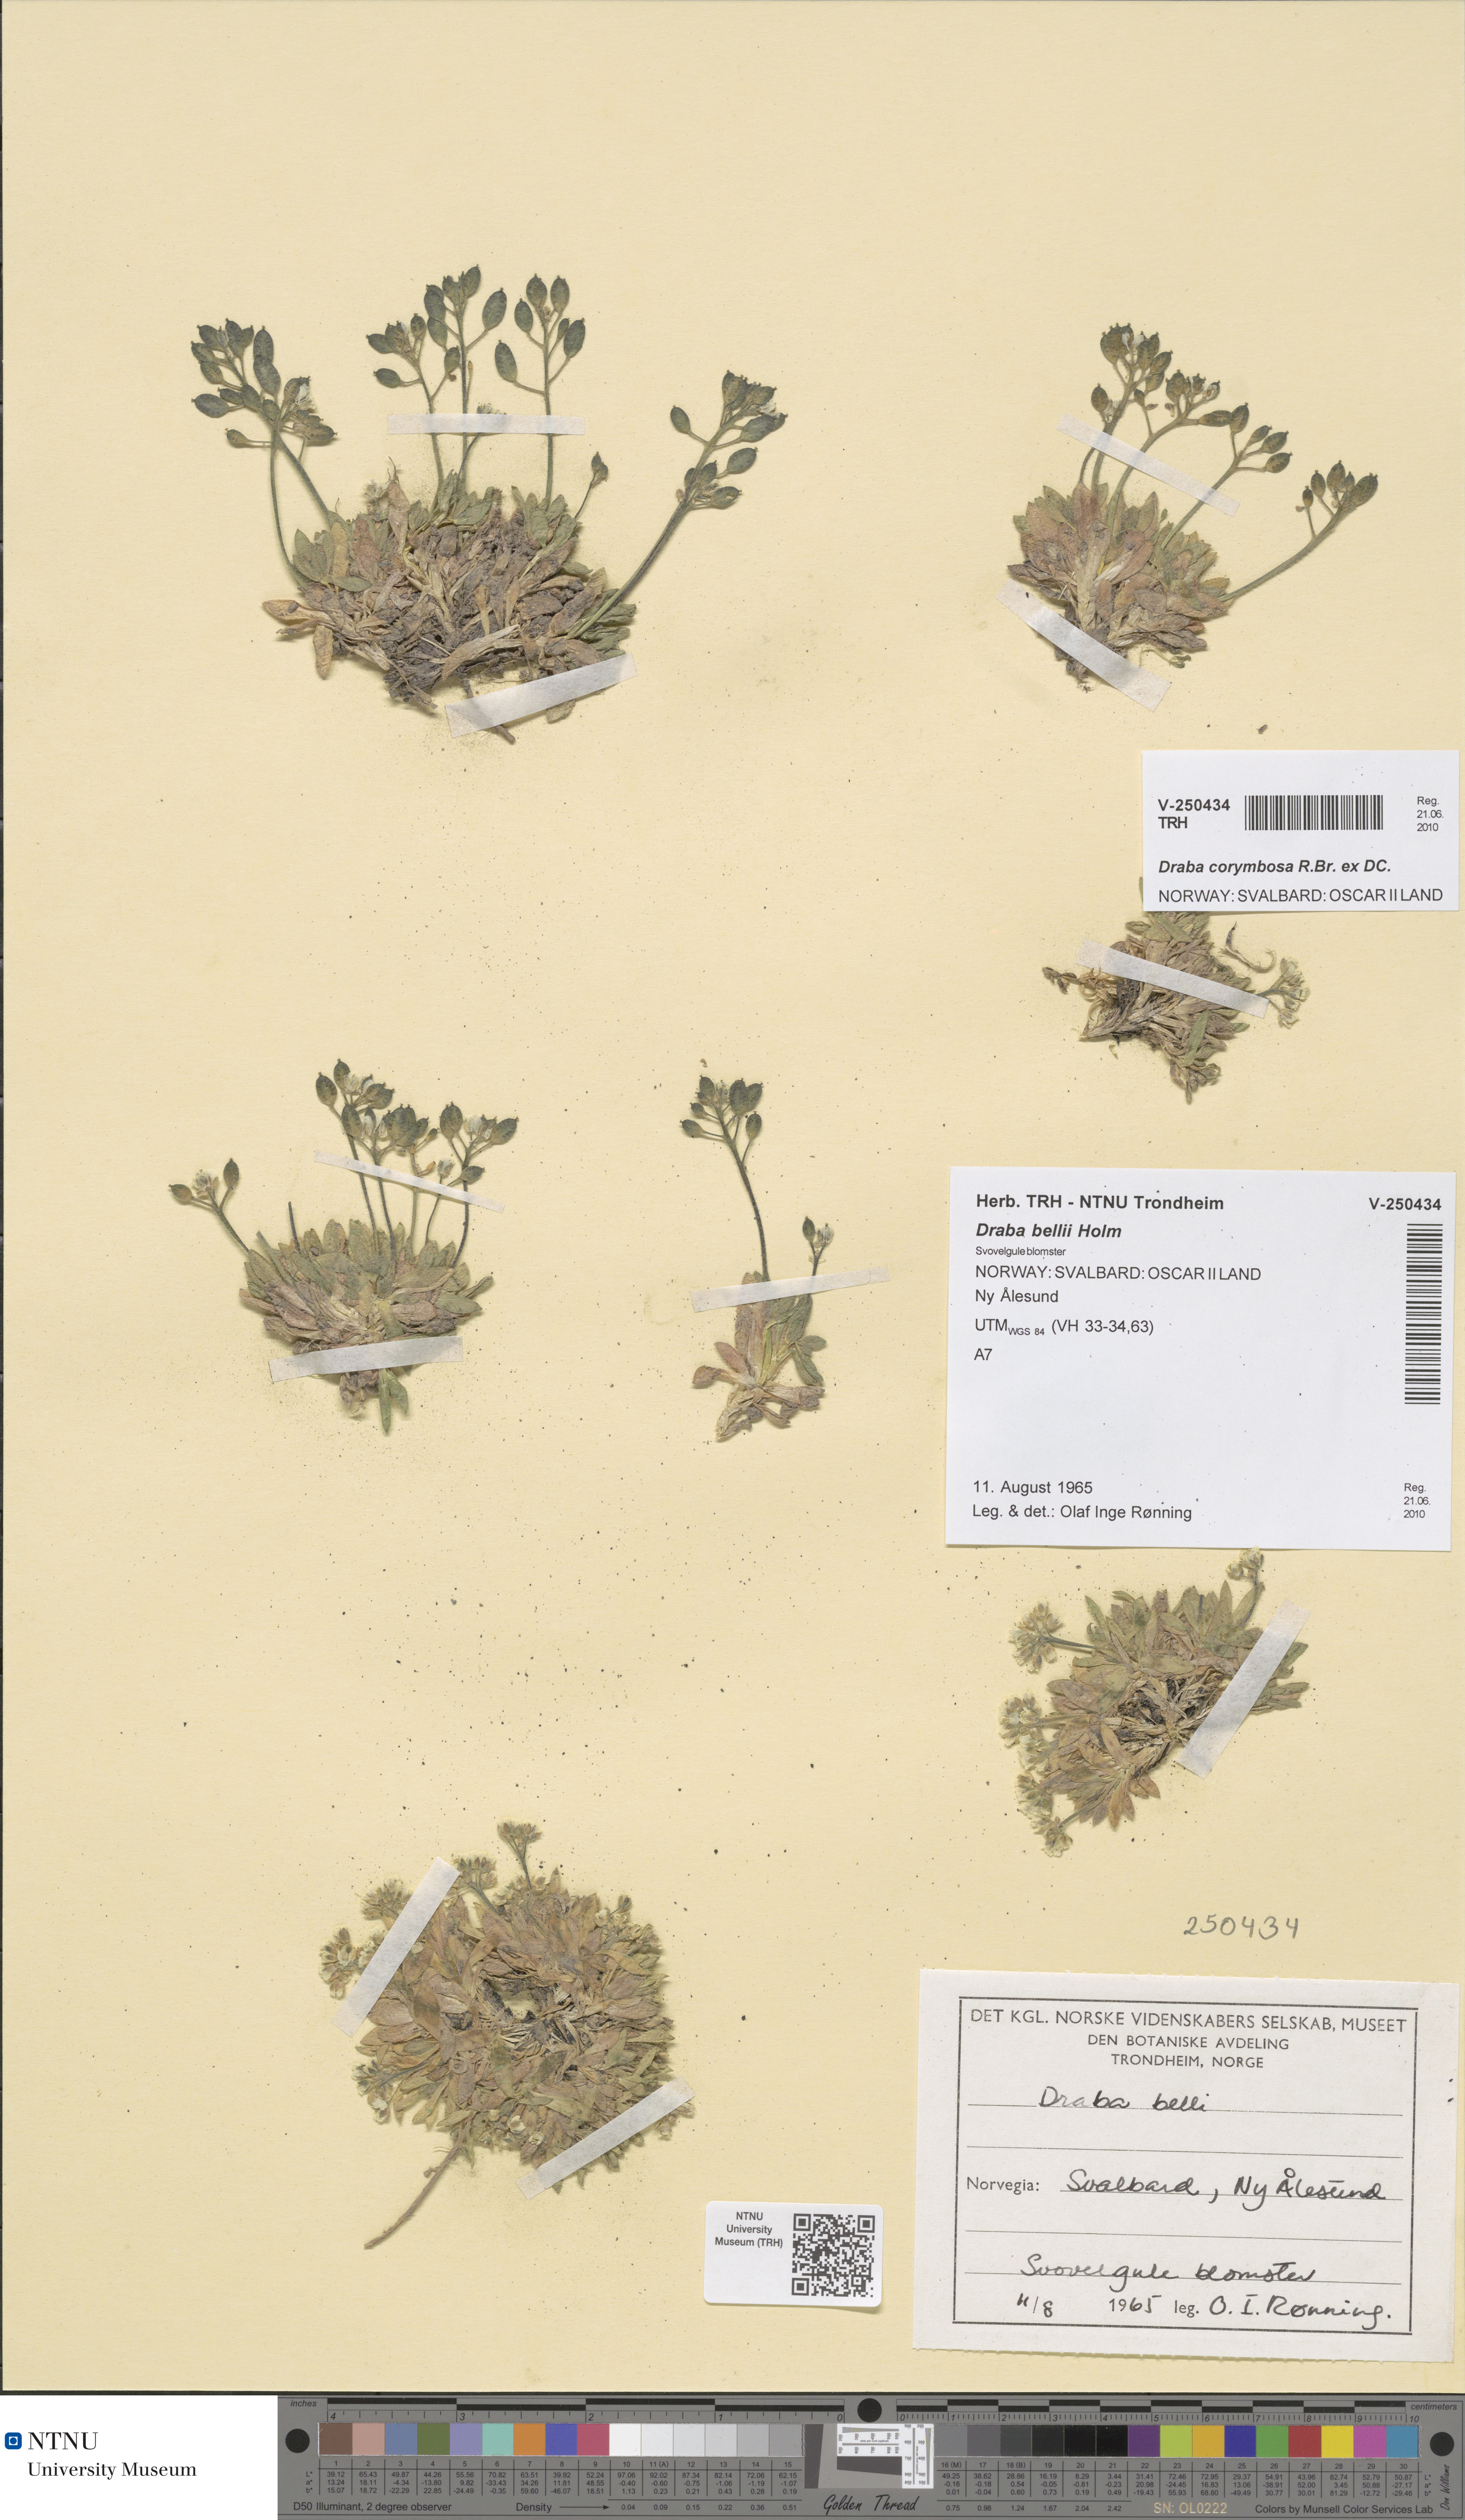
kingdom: Plantae
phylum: Tracheophyta
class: Magnoliopsida
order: Brassicales
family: Brassicaceae
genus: Draba
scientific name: Draba corymbosa
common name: Cushion whitlow-grass
